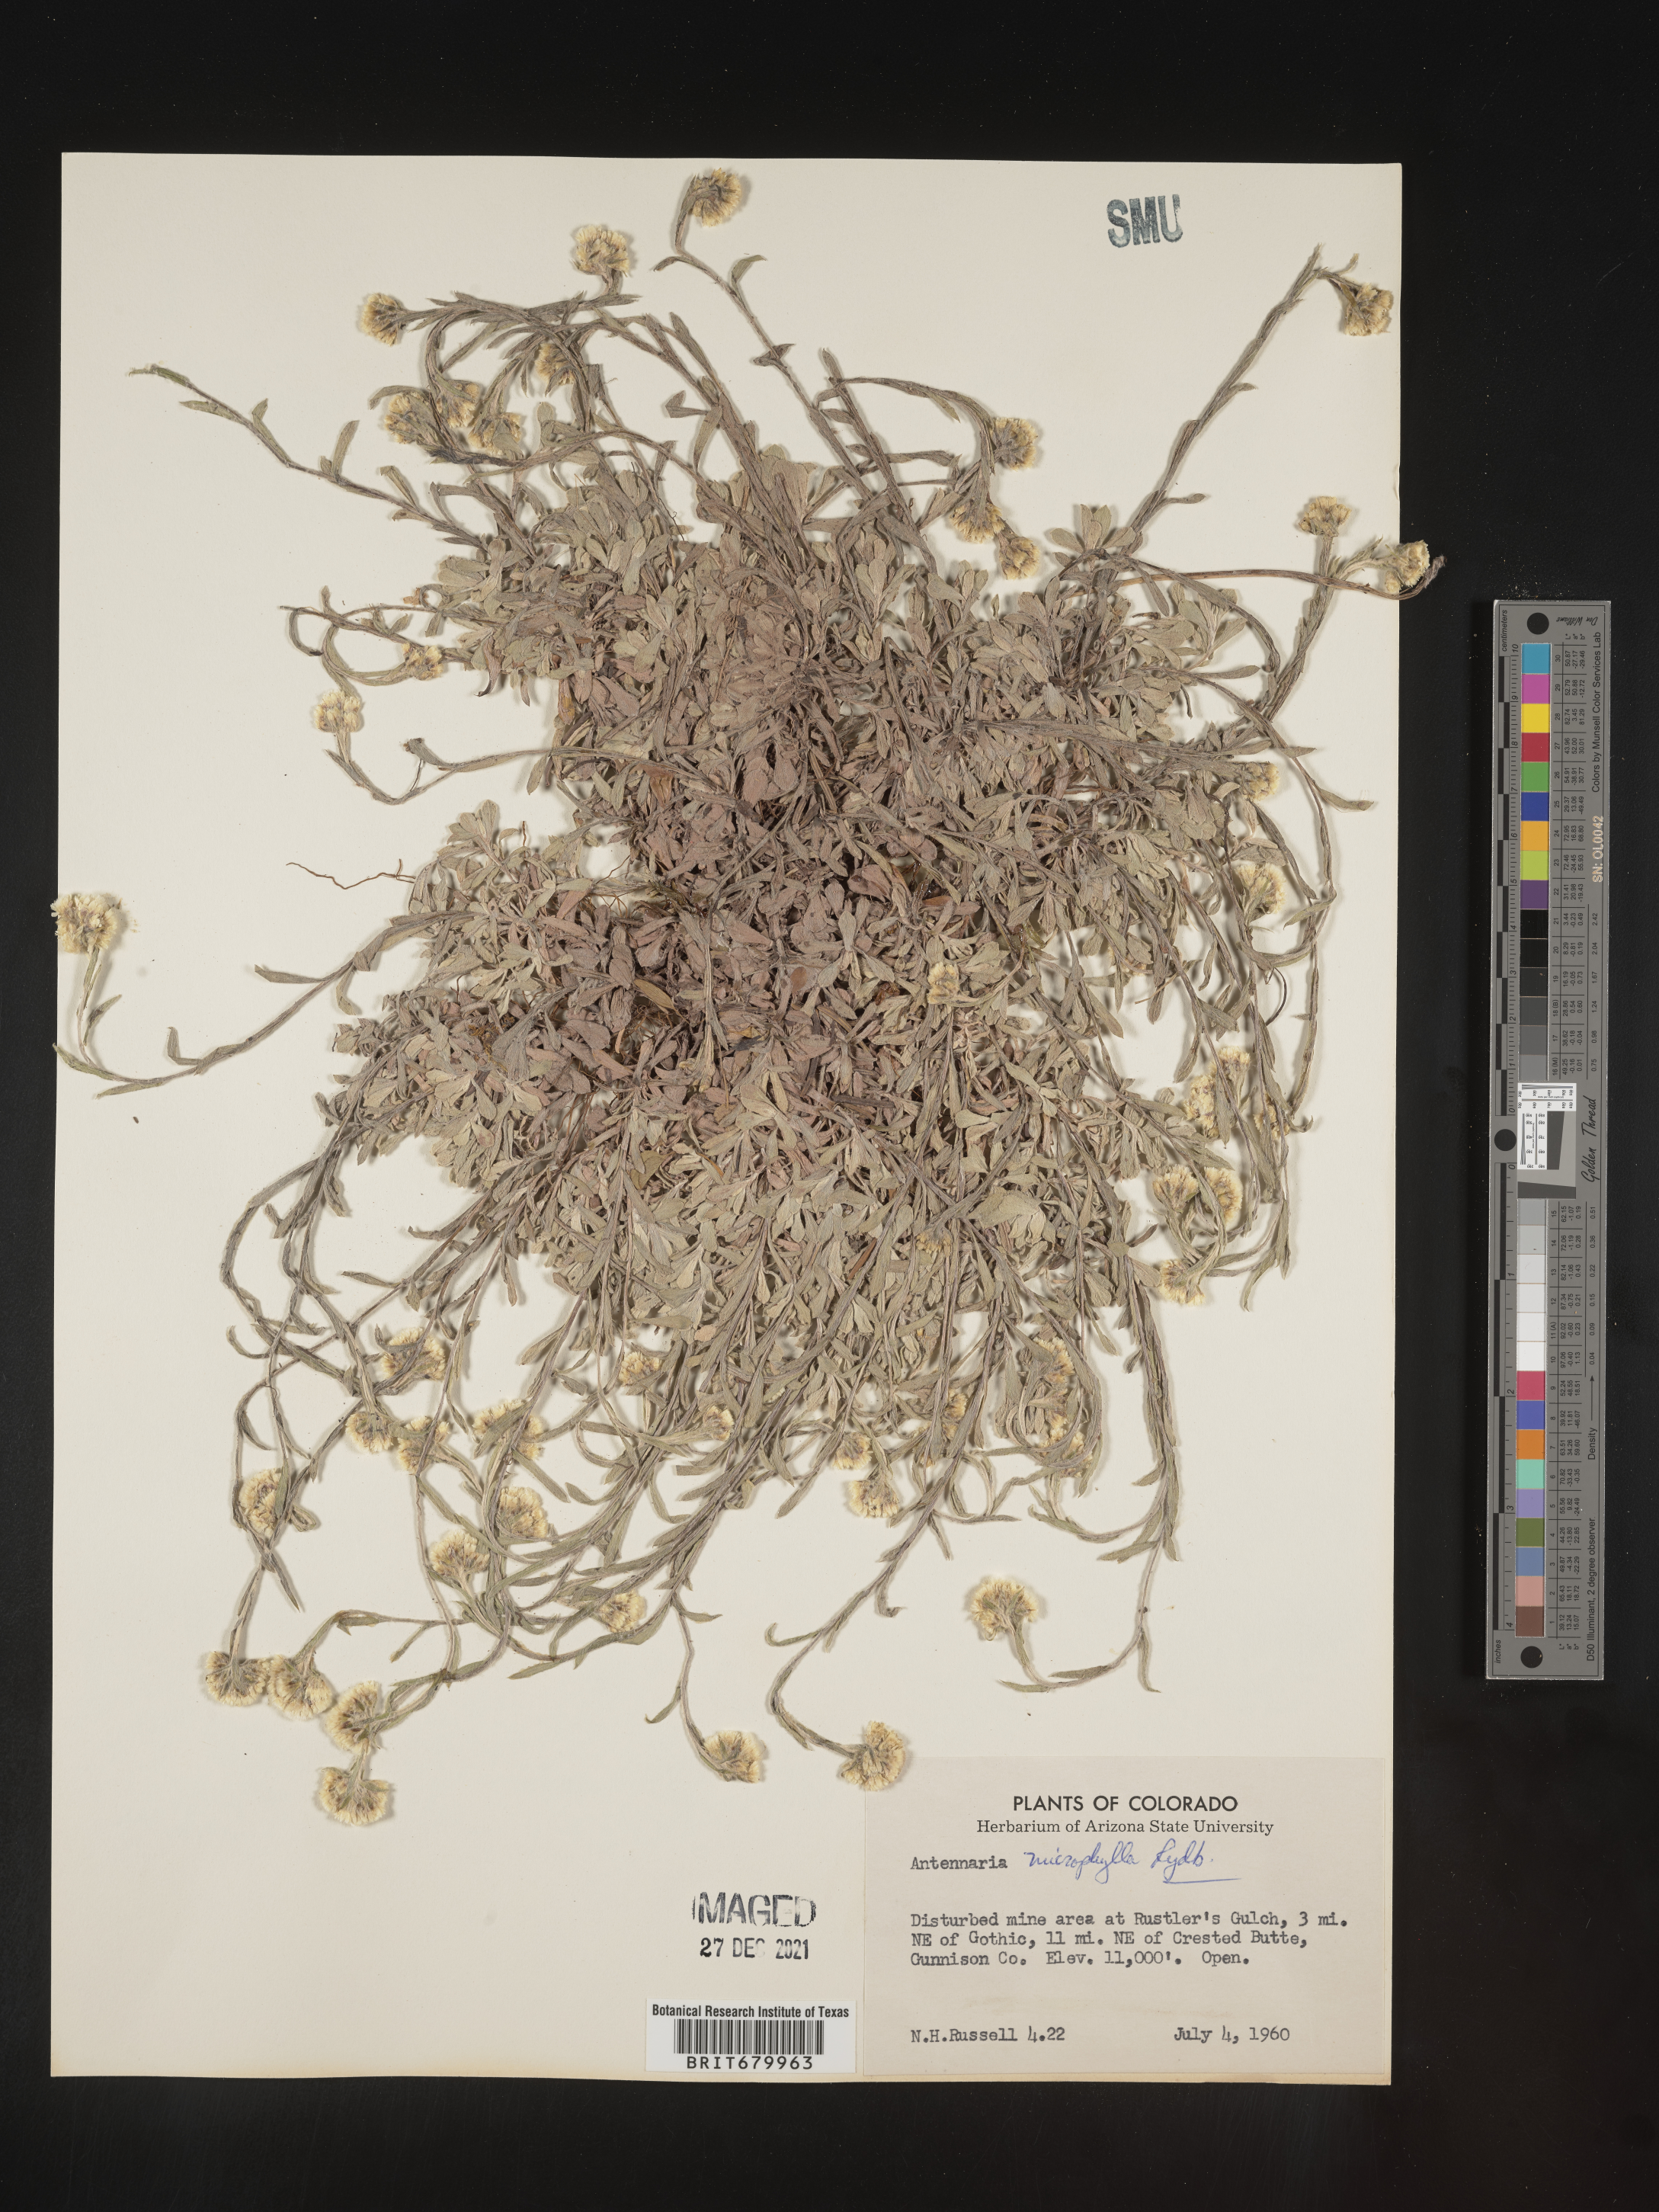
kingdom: Plantae
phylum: Tracheophyta
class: Magnoliopsida
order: Asterales
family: Asteraceae
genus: Antennaria
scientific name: Antennaria rosea
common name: Rosy pussytoes
